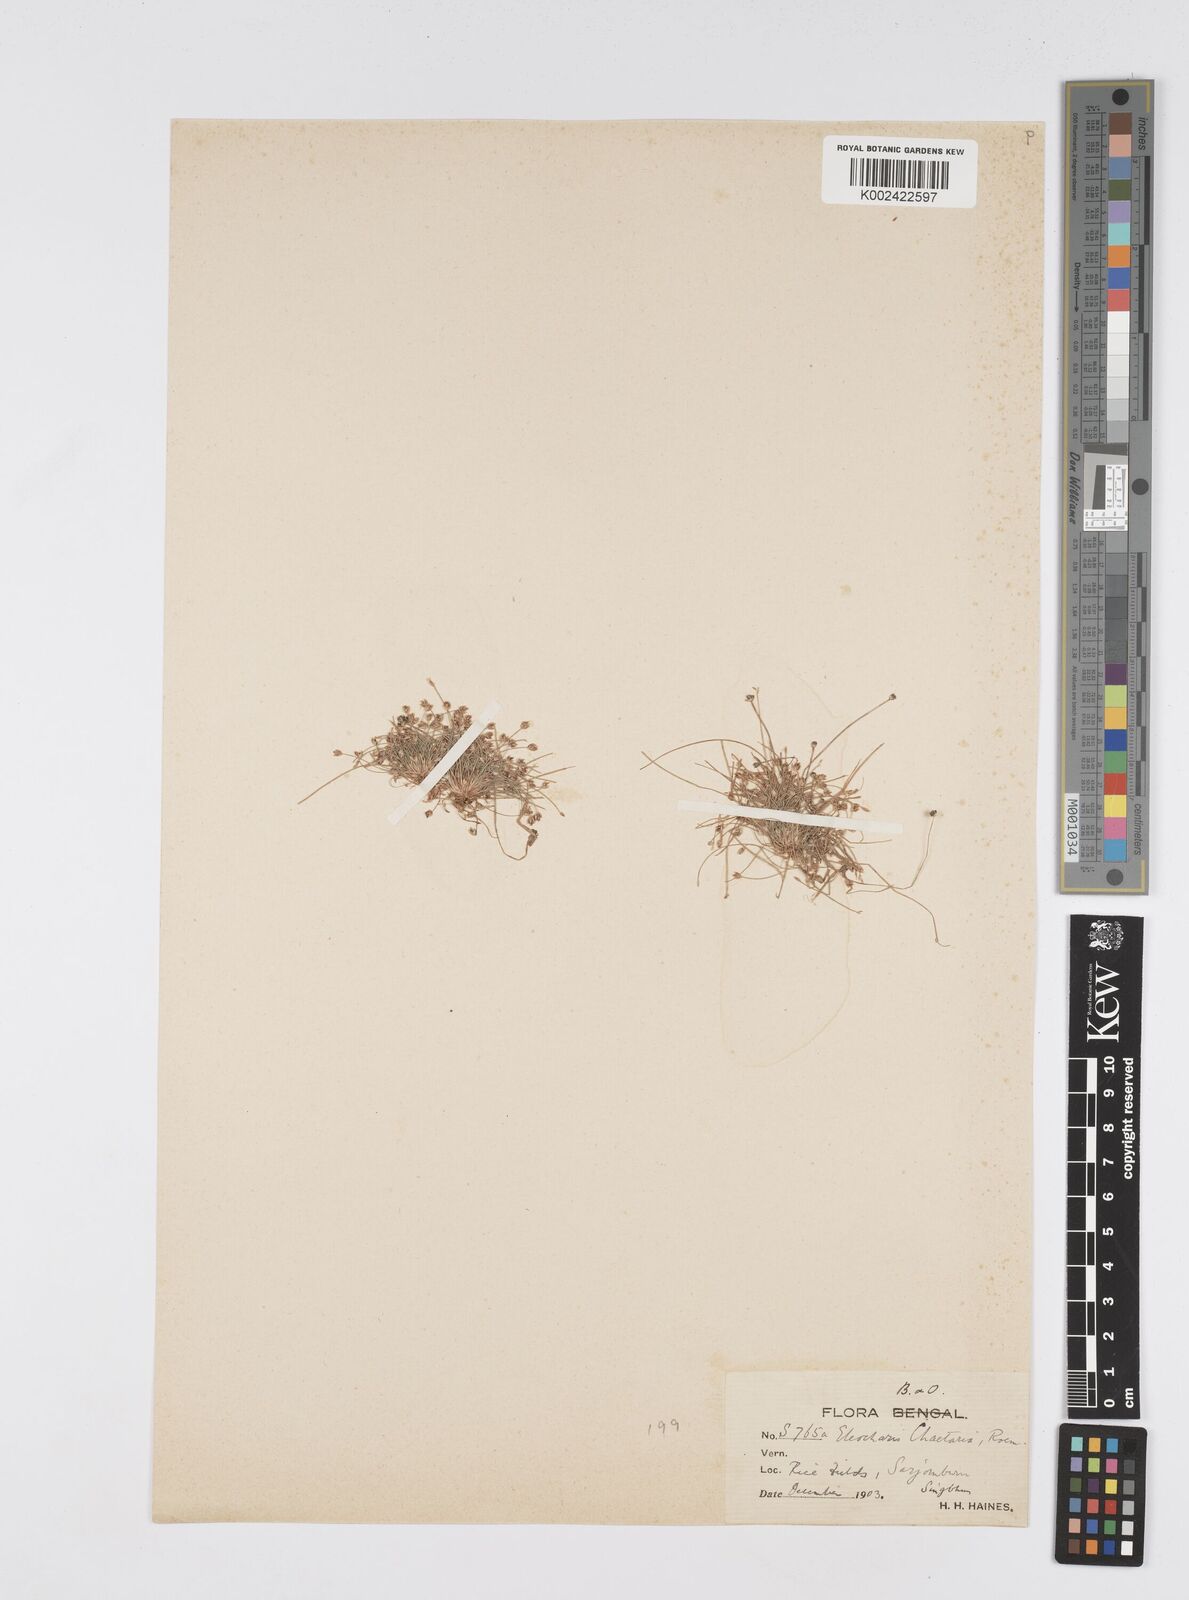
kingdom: Plantae
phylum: Tracheophyta
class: Liliopsida
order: Poales
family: Cyperaceae
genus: Eleocharis
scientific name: Eleocharis retroflexa
